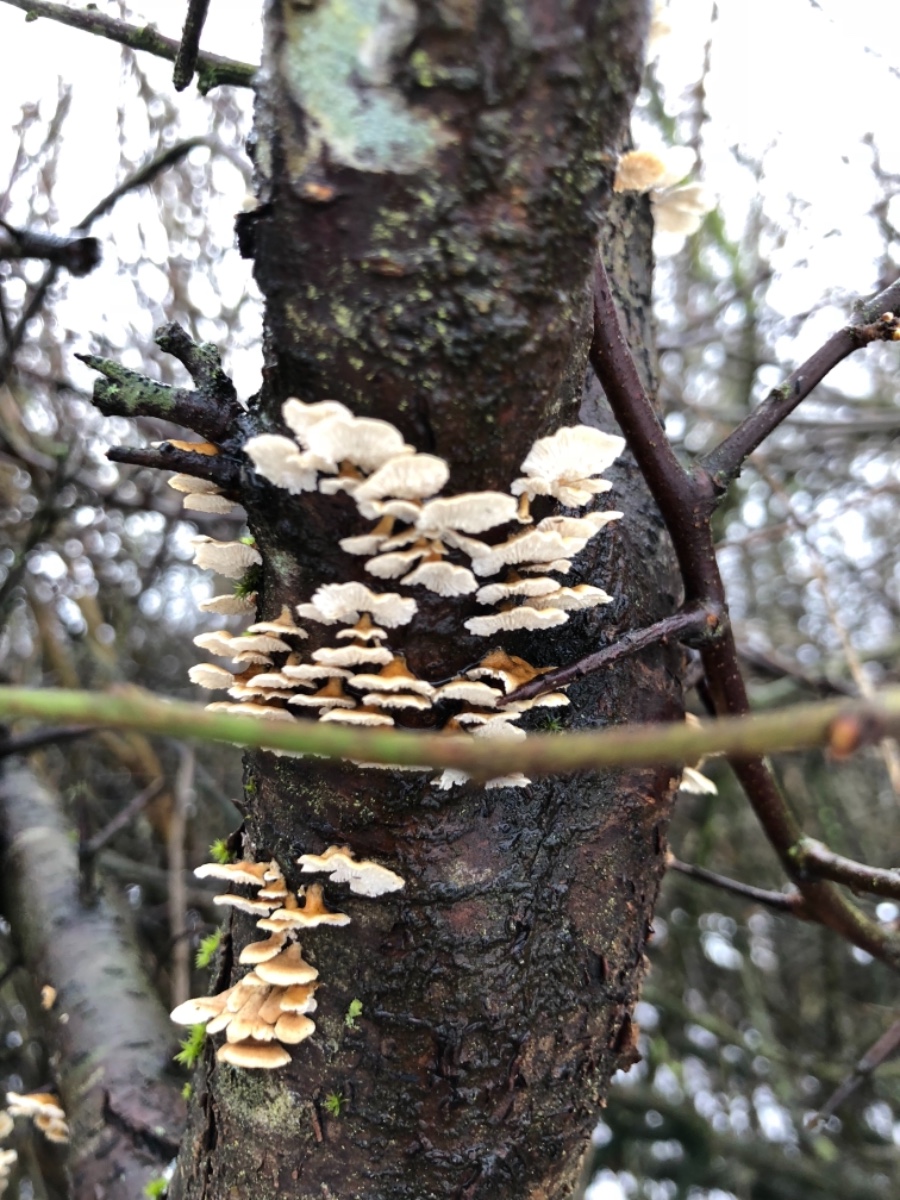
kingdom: Fungi
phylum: Basidiomycota
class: Agaricomycetes
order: Amylocorticiales
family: Amylocorticiaceae
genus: Plicaturopsis
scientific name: Plicaturopsis crispa
